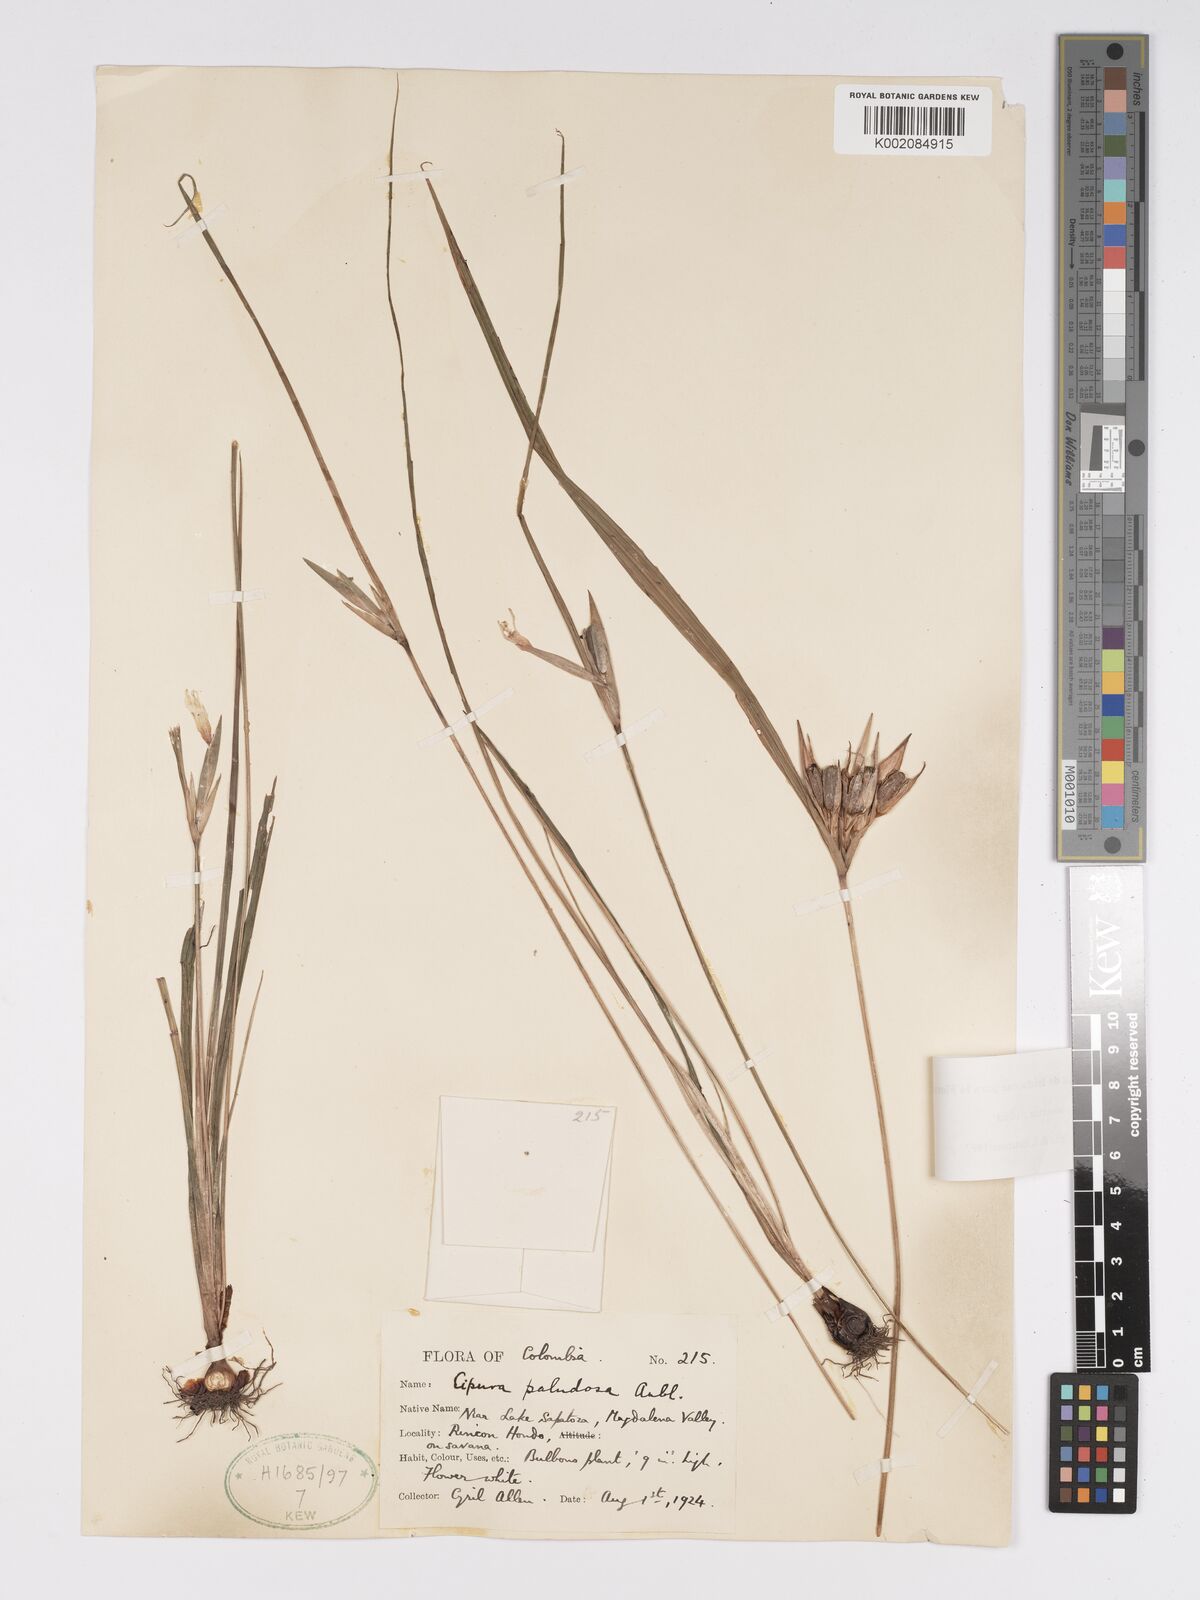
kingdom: Plantae
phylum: Tracheophyta
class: Liliopsida
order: Asparagales
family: Iridaceae
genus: Cipura
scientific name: Cipura paludosa
